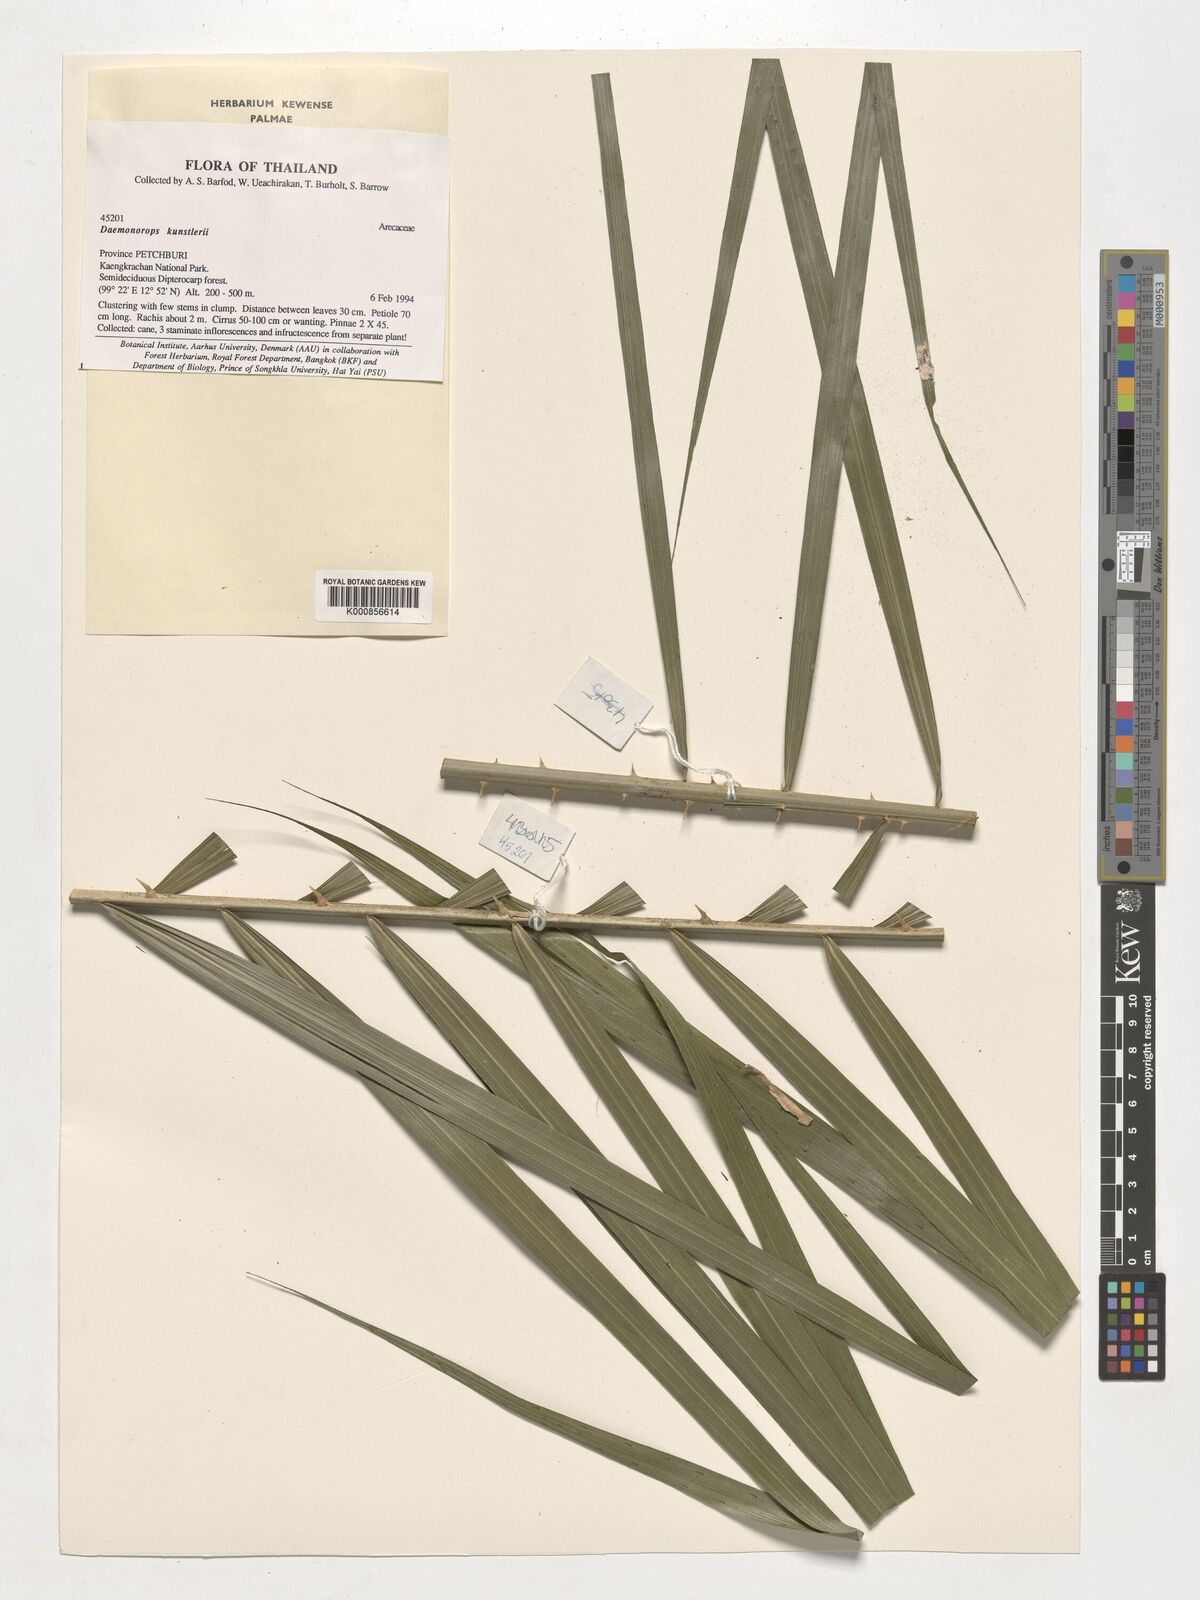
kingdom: Plantae
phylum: Tracheophyta
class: Liliopsida
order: Arecales
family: Arecaceae
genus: Calamus
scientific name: Calamus kunstleri
